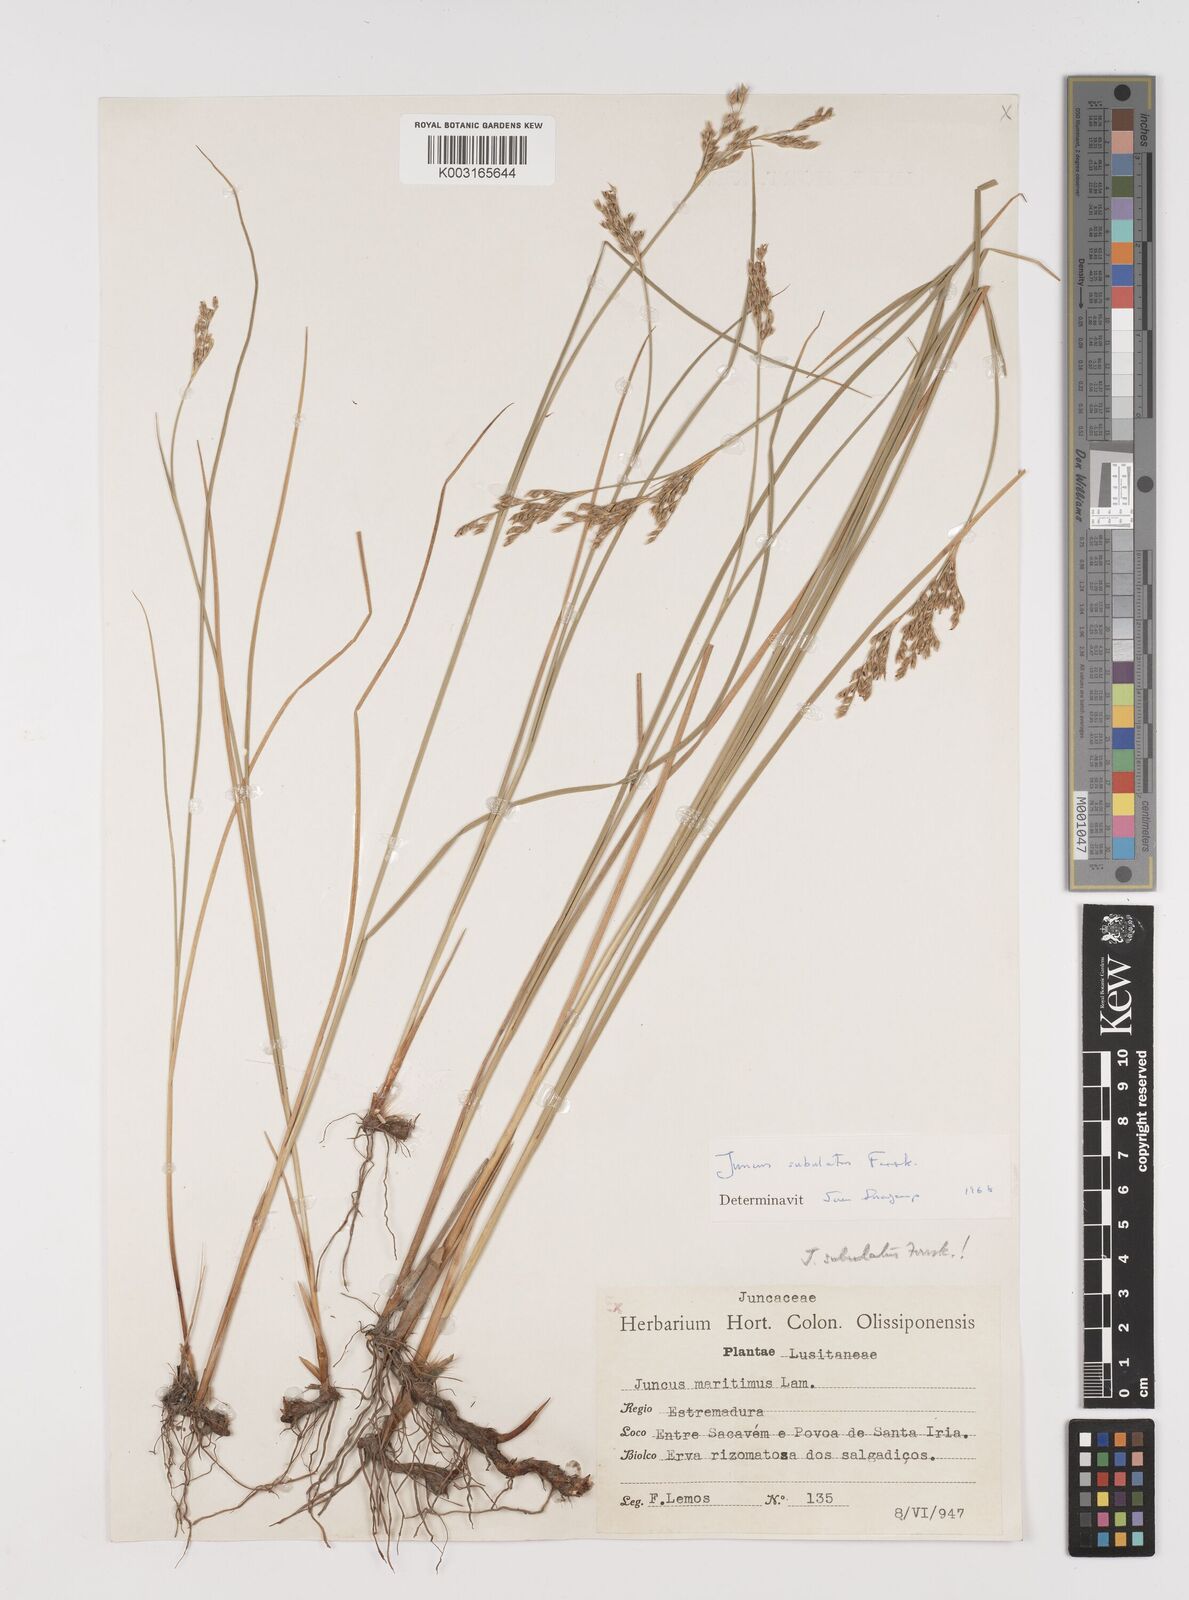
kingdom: Plantae
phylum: Tracheophyta
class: Liliopsida
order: Poales
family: Juncaceae
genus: Juncus
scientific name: Juncus subulatus
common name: Somerset rush
